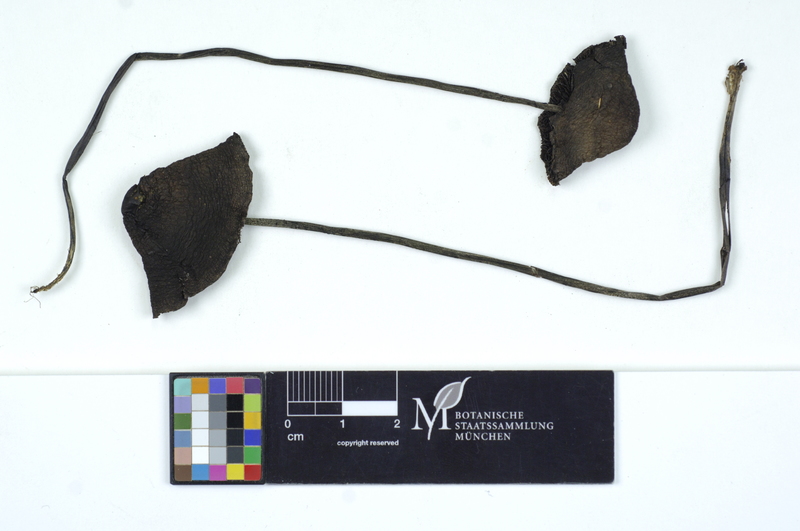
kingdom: Fungi
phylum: Basidiomycota
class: Agaricomycetes
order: Agaricales
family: Bolbitiaceae
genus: Panaeolus
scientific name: Panaeolus acuminatus
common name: Dewdrop mottlegill
